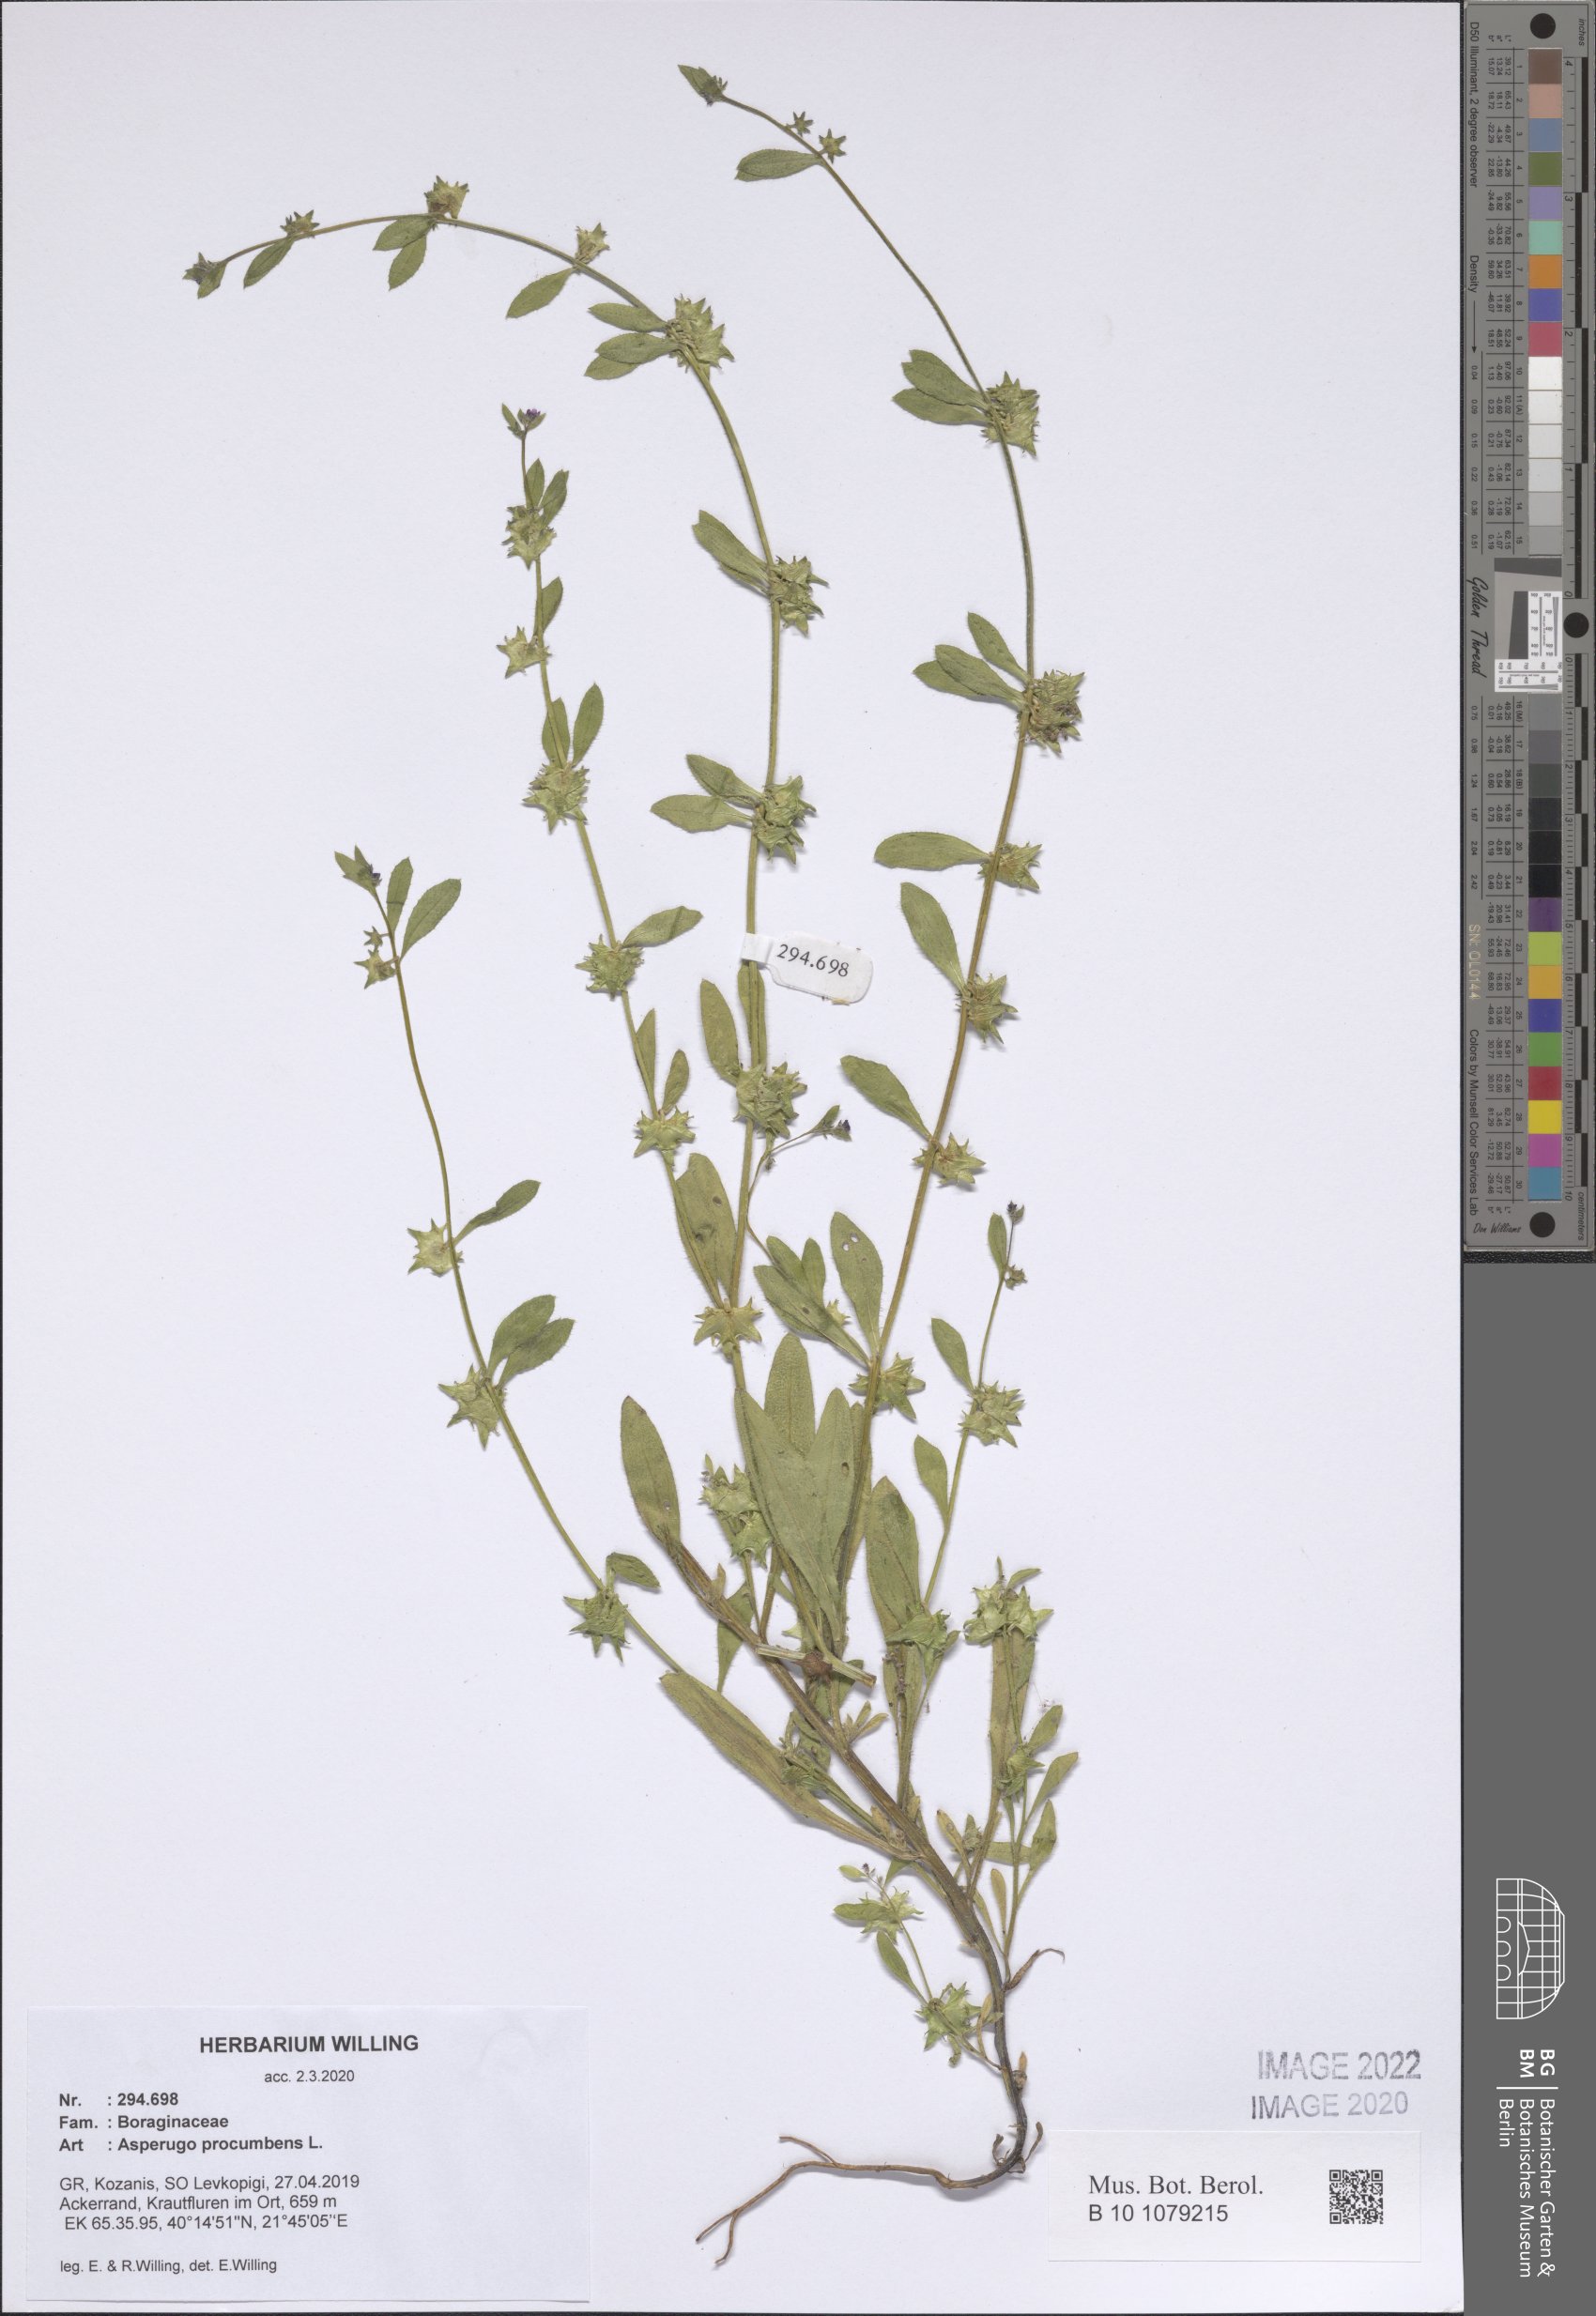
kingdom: Plantae
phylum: Tracheophyta
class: Magnoliopsida
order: Boraginales
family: Boraginaceae
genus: Asperugo
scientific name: Asperugo procumbens
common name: Madwort
